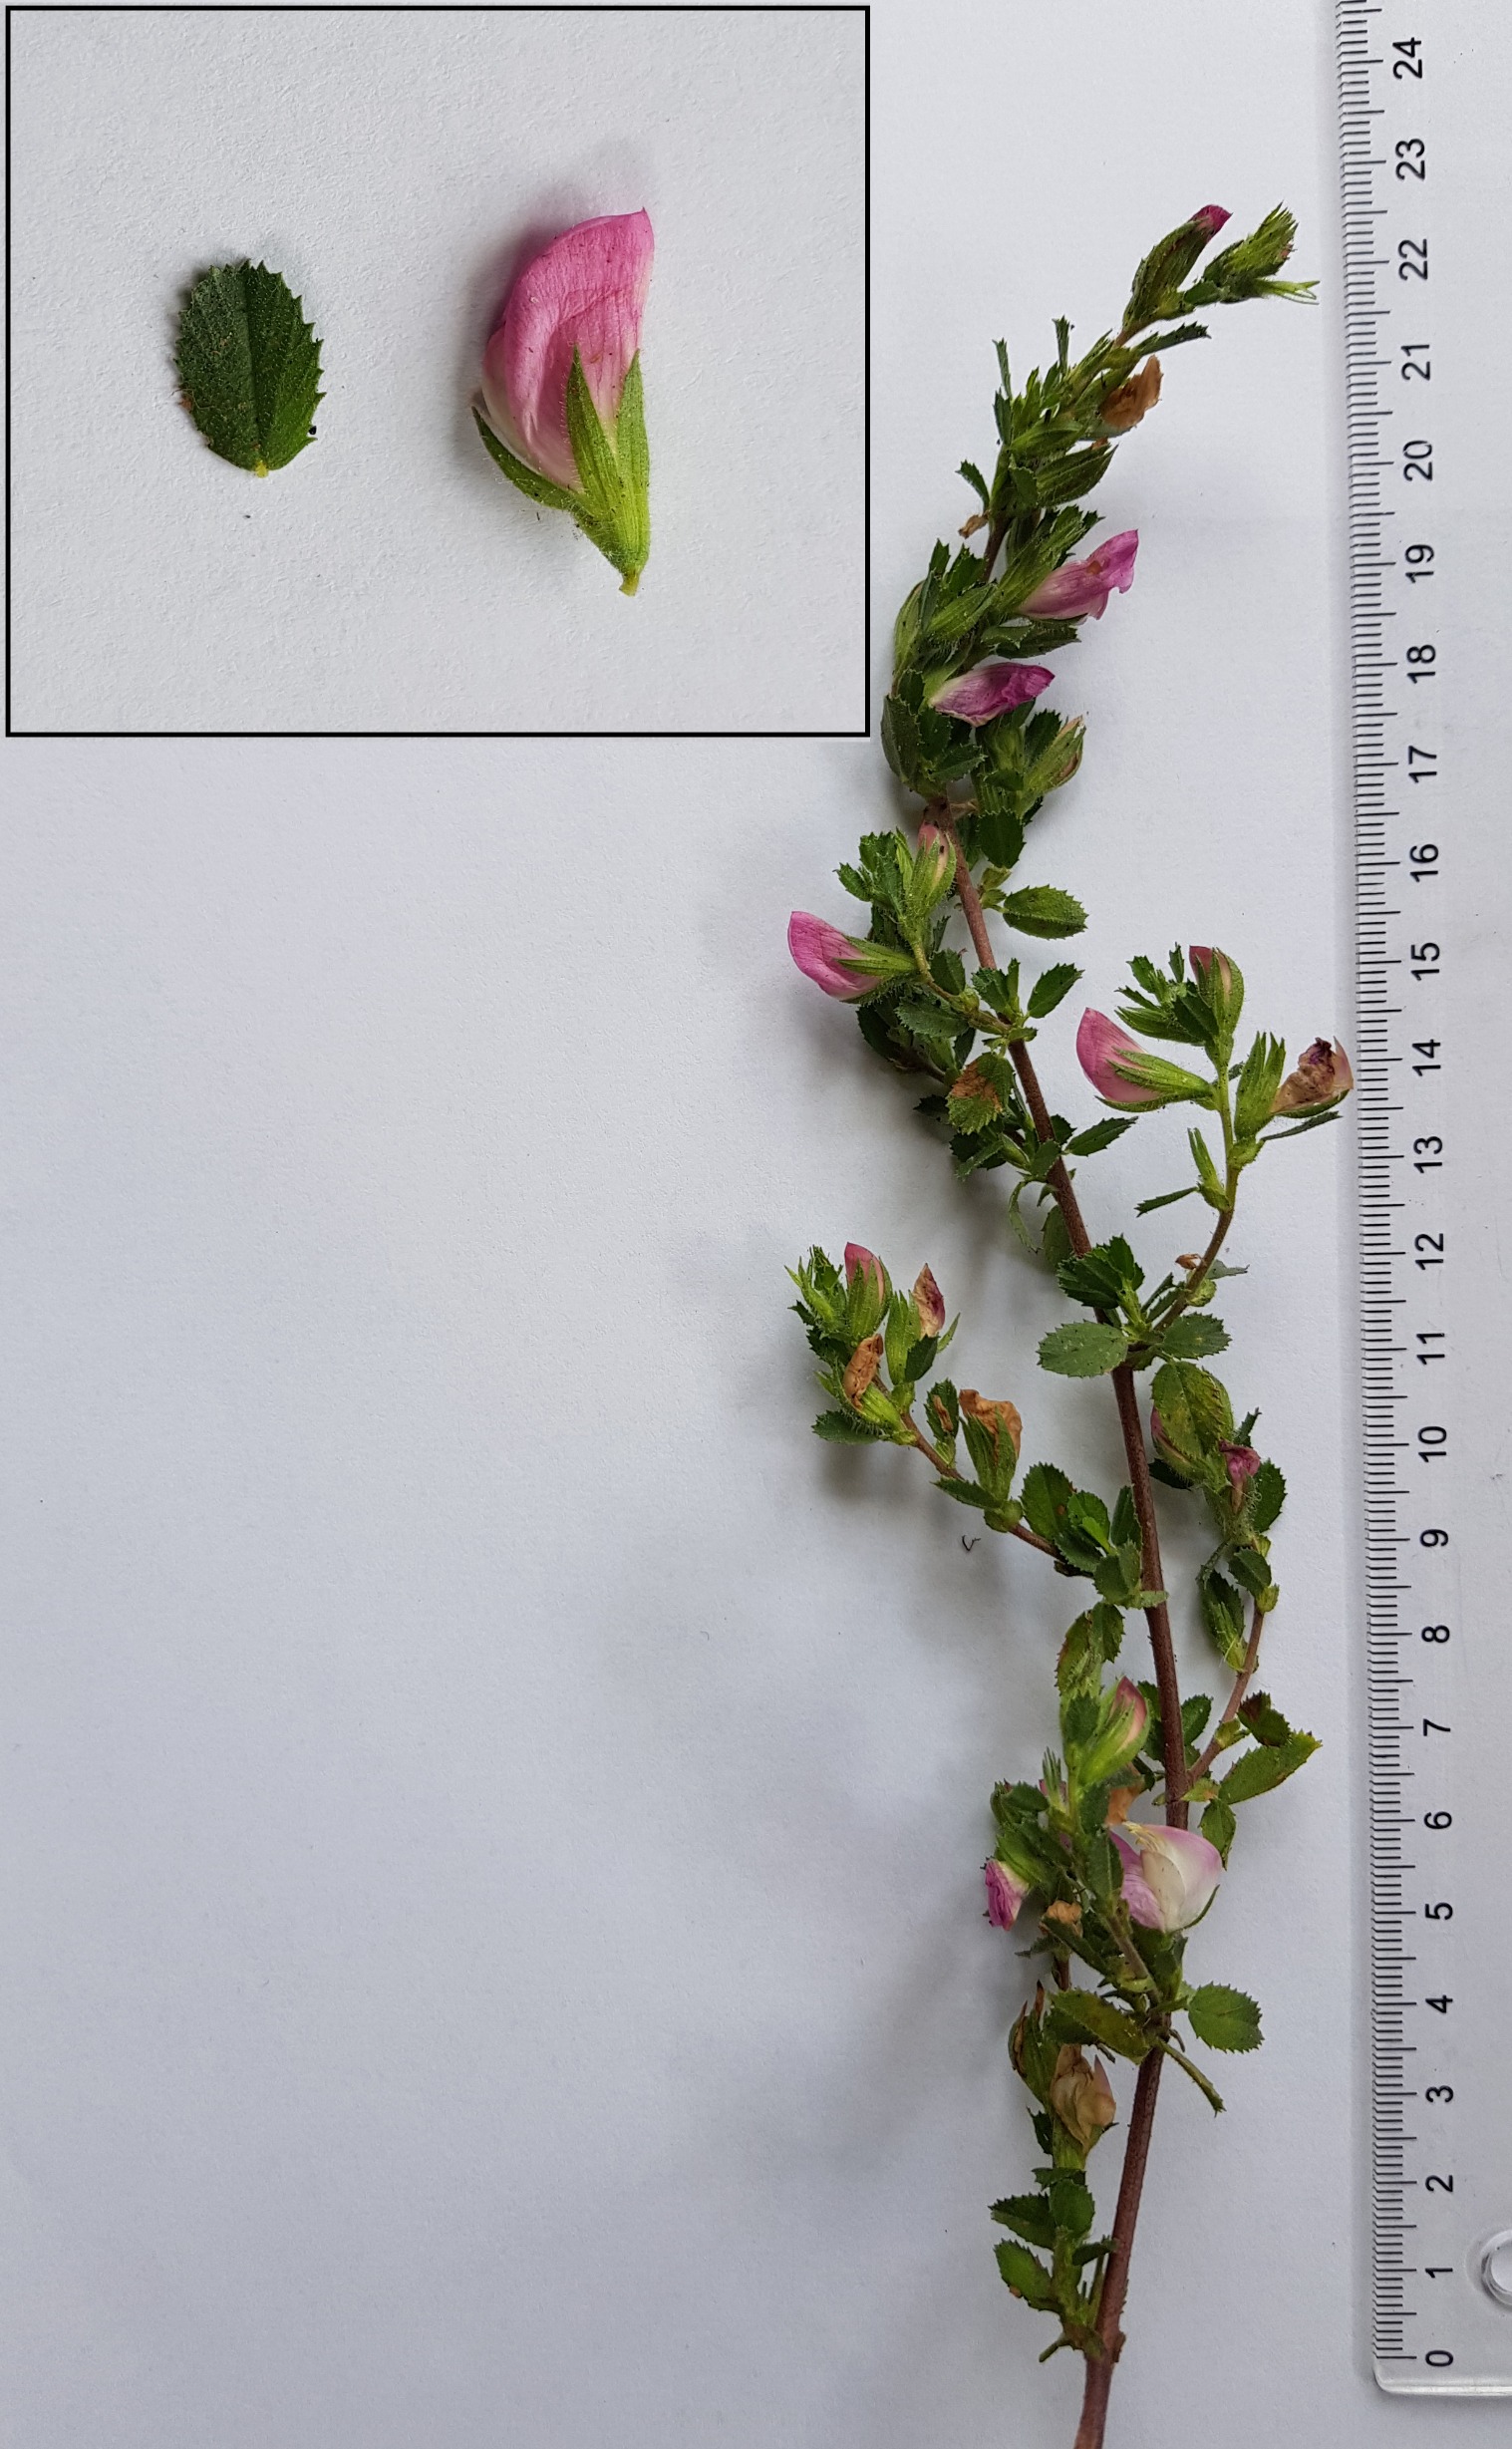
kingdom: Plantae
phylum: Tracheophyta
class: Magnoliopsida
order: Fabales
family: Fabaceae
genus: Ononis
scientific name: Ononis spinosa
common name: Mark-krageklo
